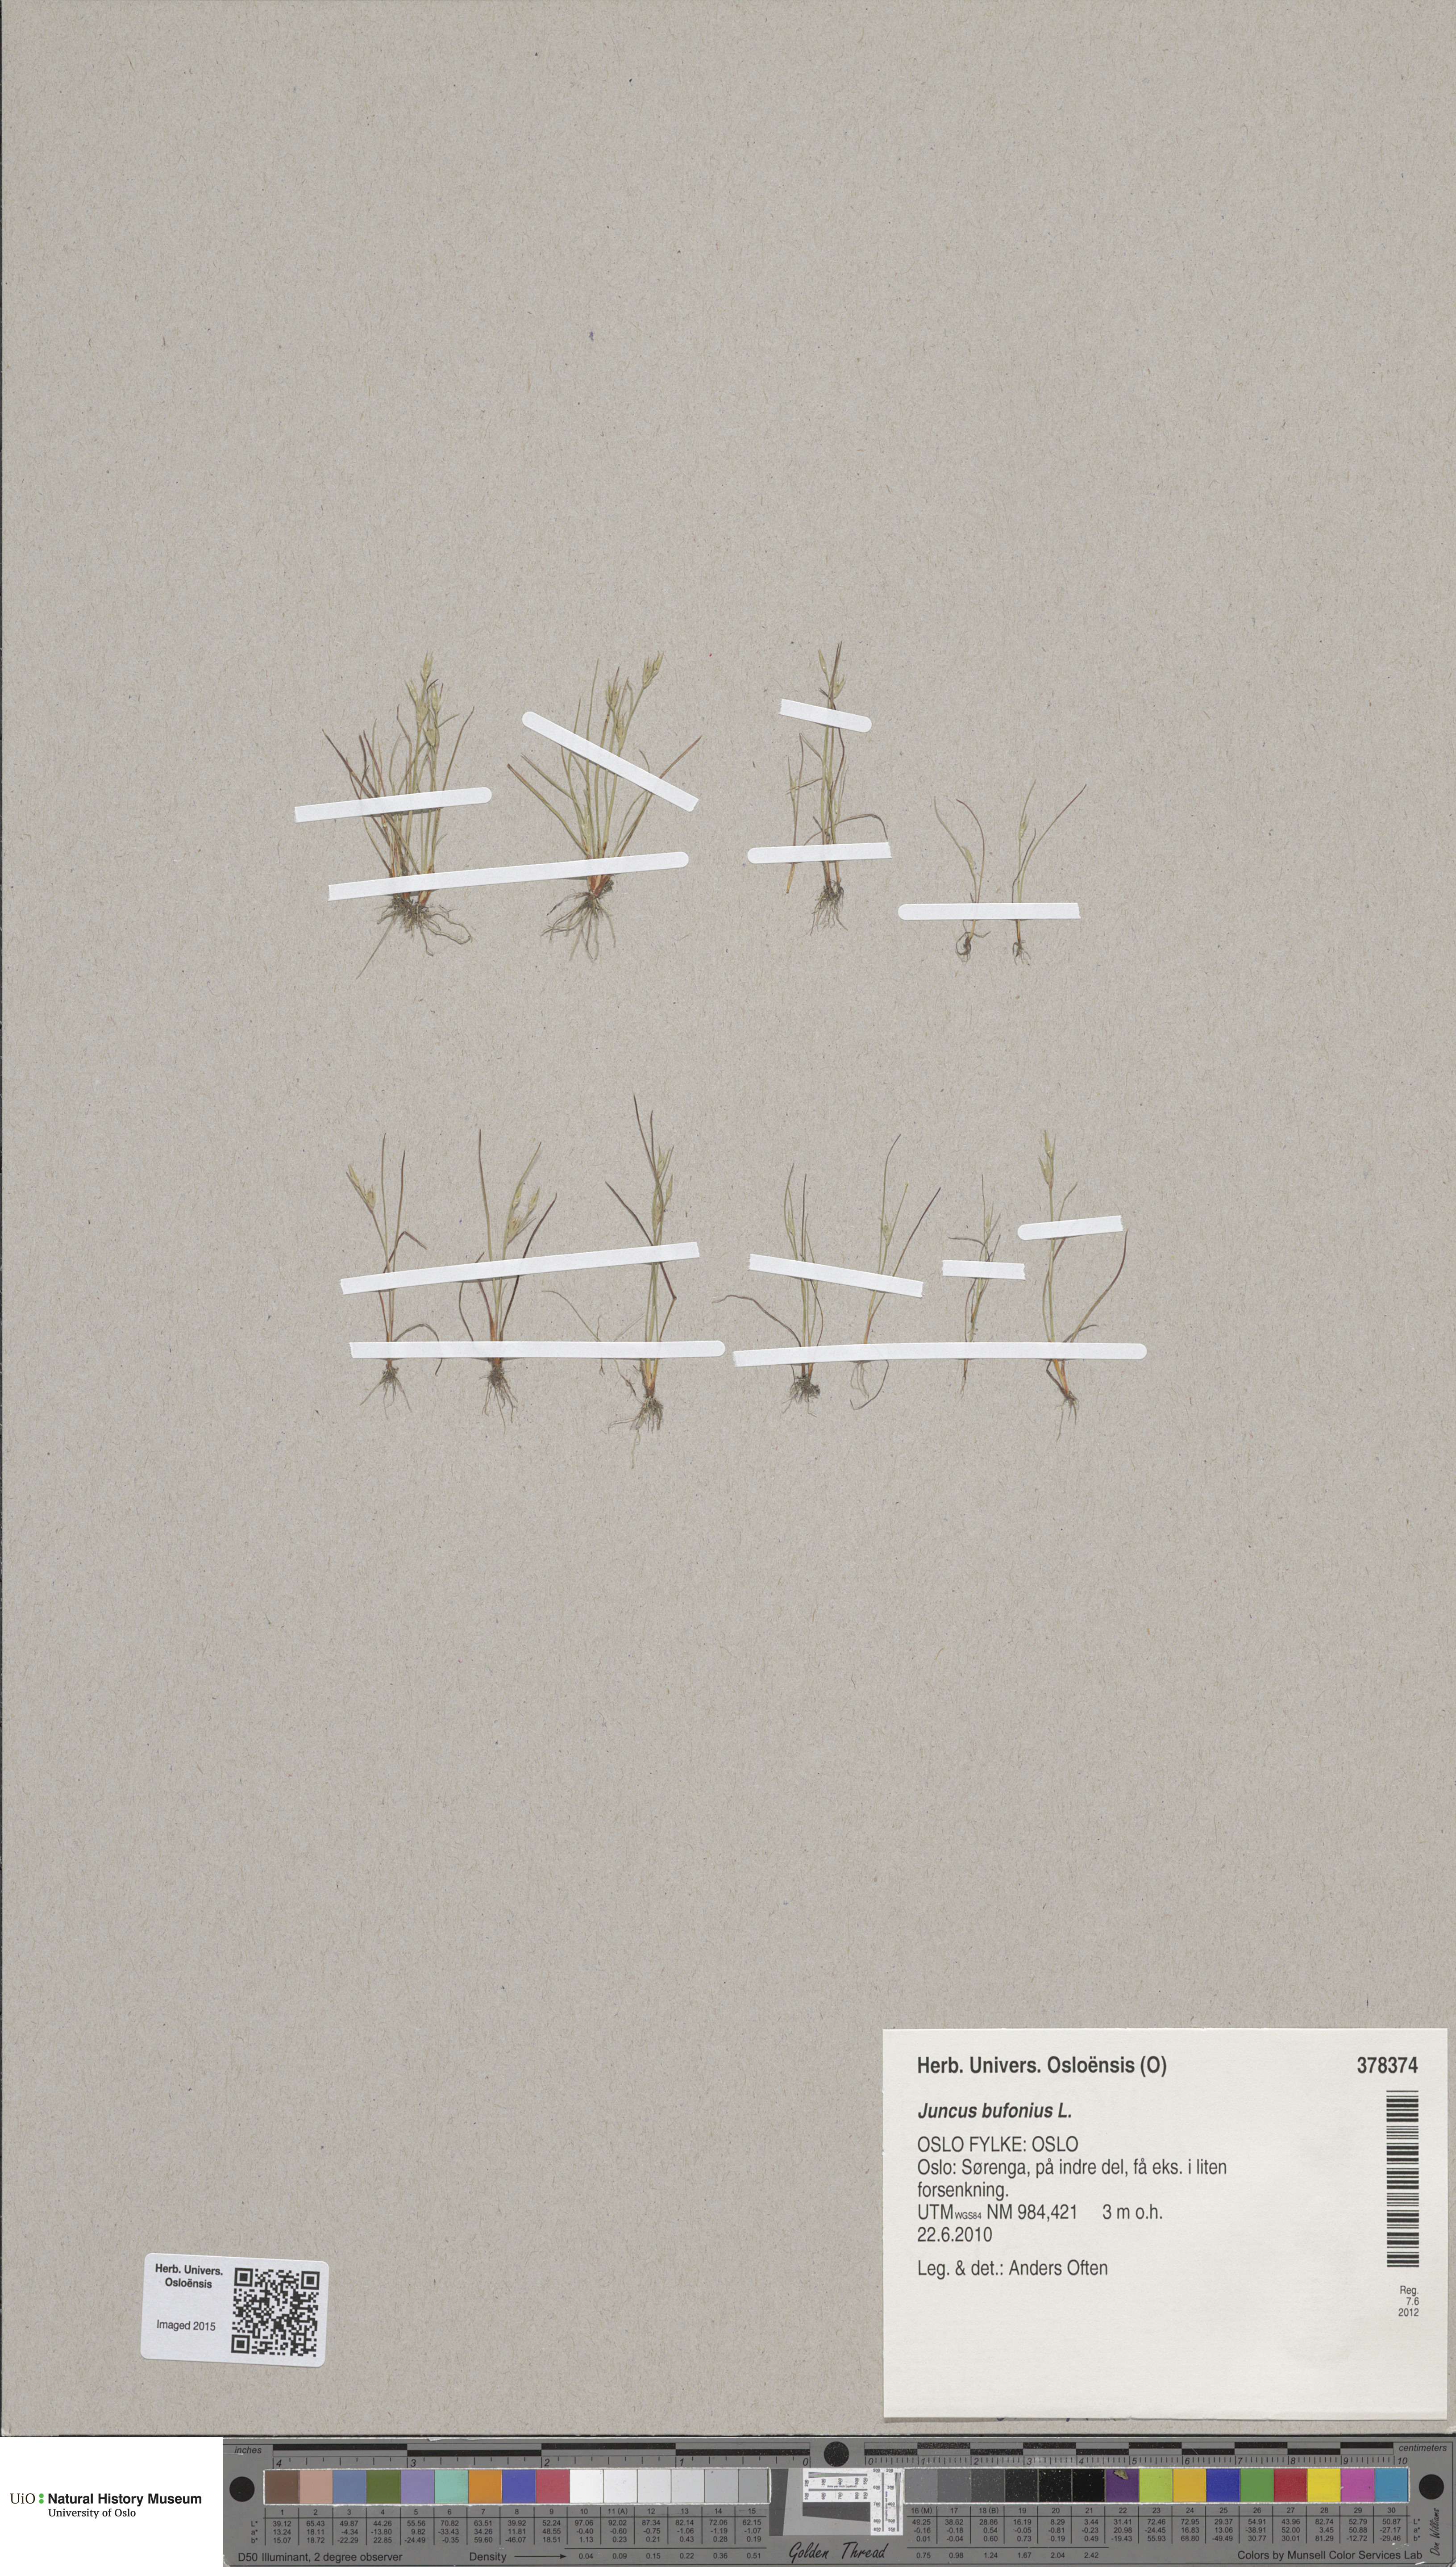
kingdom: Plantae
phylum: Tracheophyta
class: Liliopsida
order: Poales
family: Juncaceae
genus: Juncus
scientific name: Juncus bufonius
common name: Toad rush
